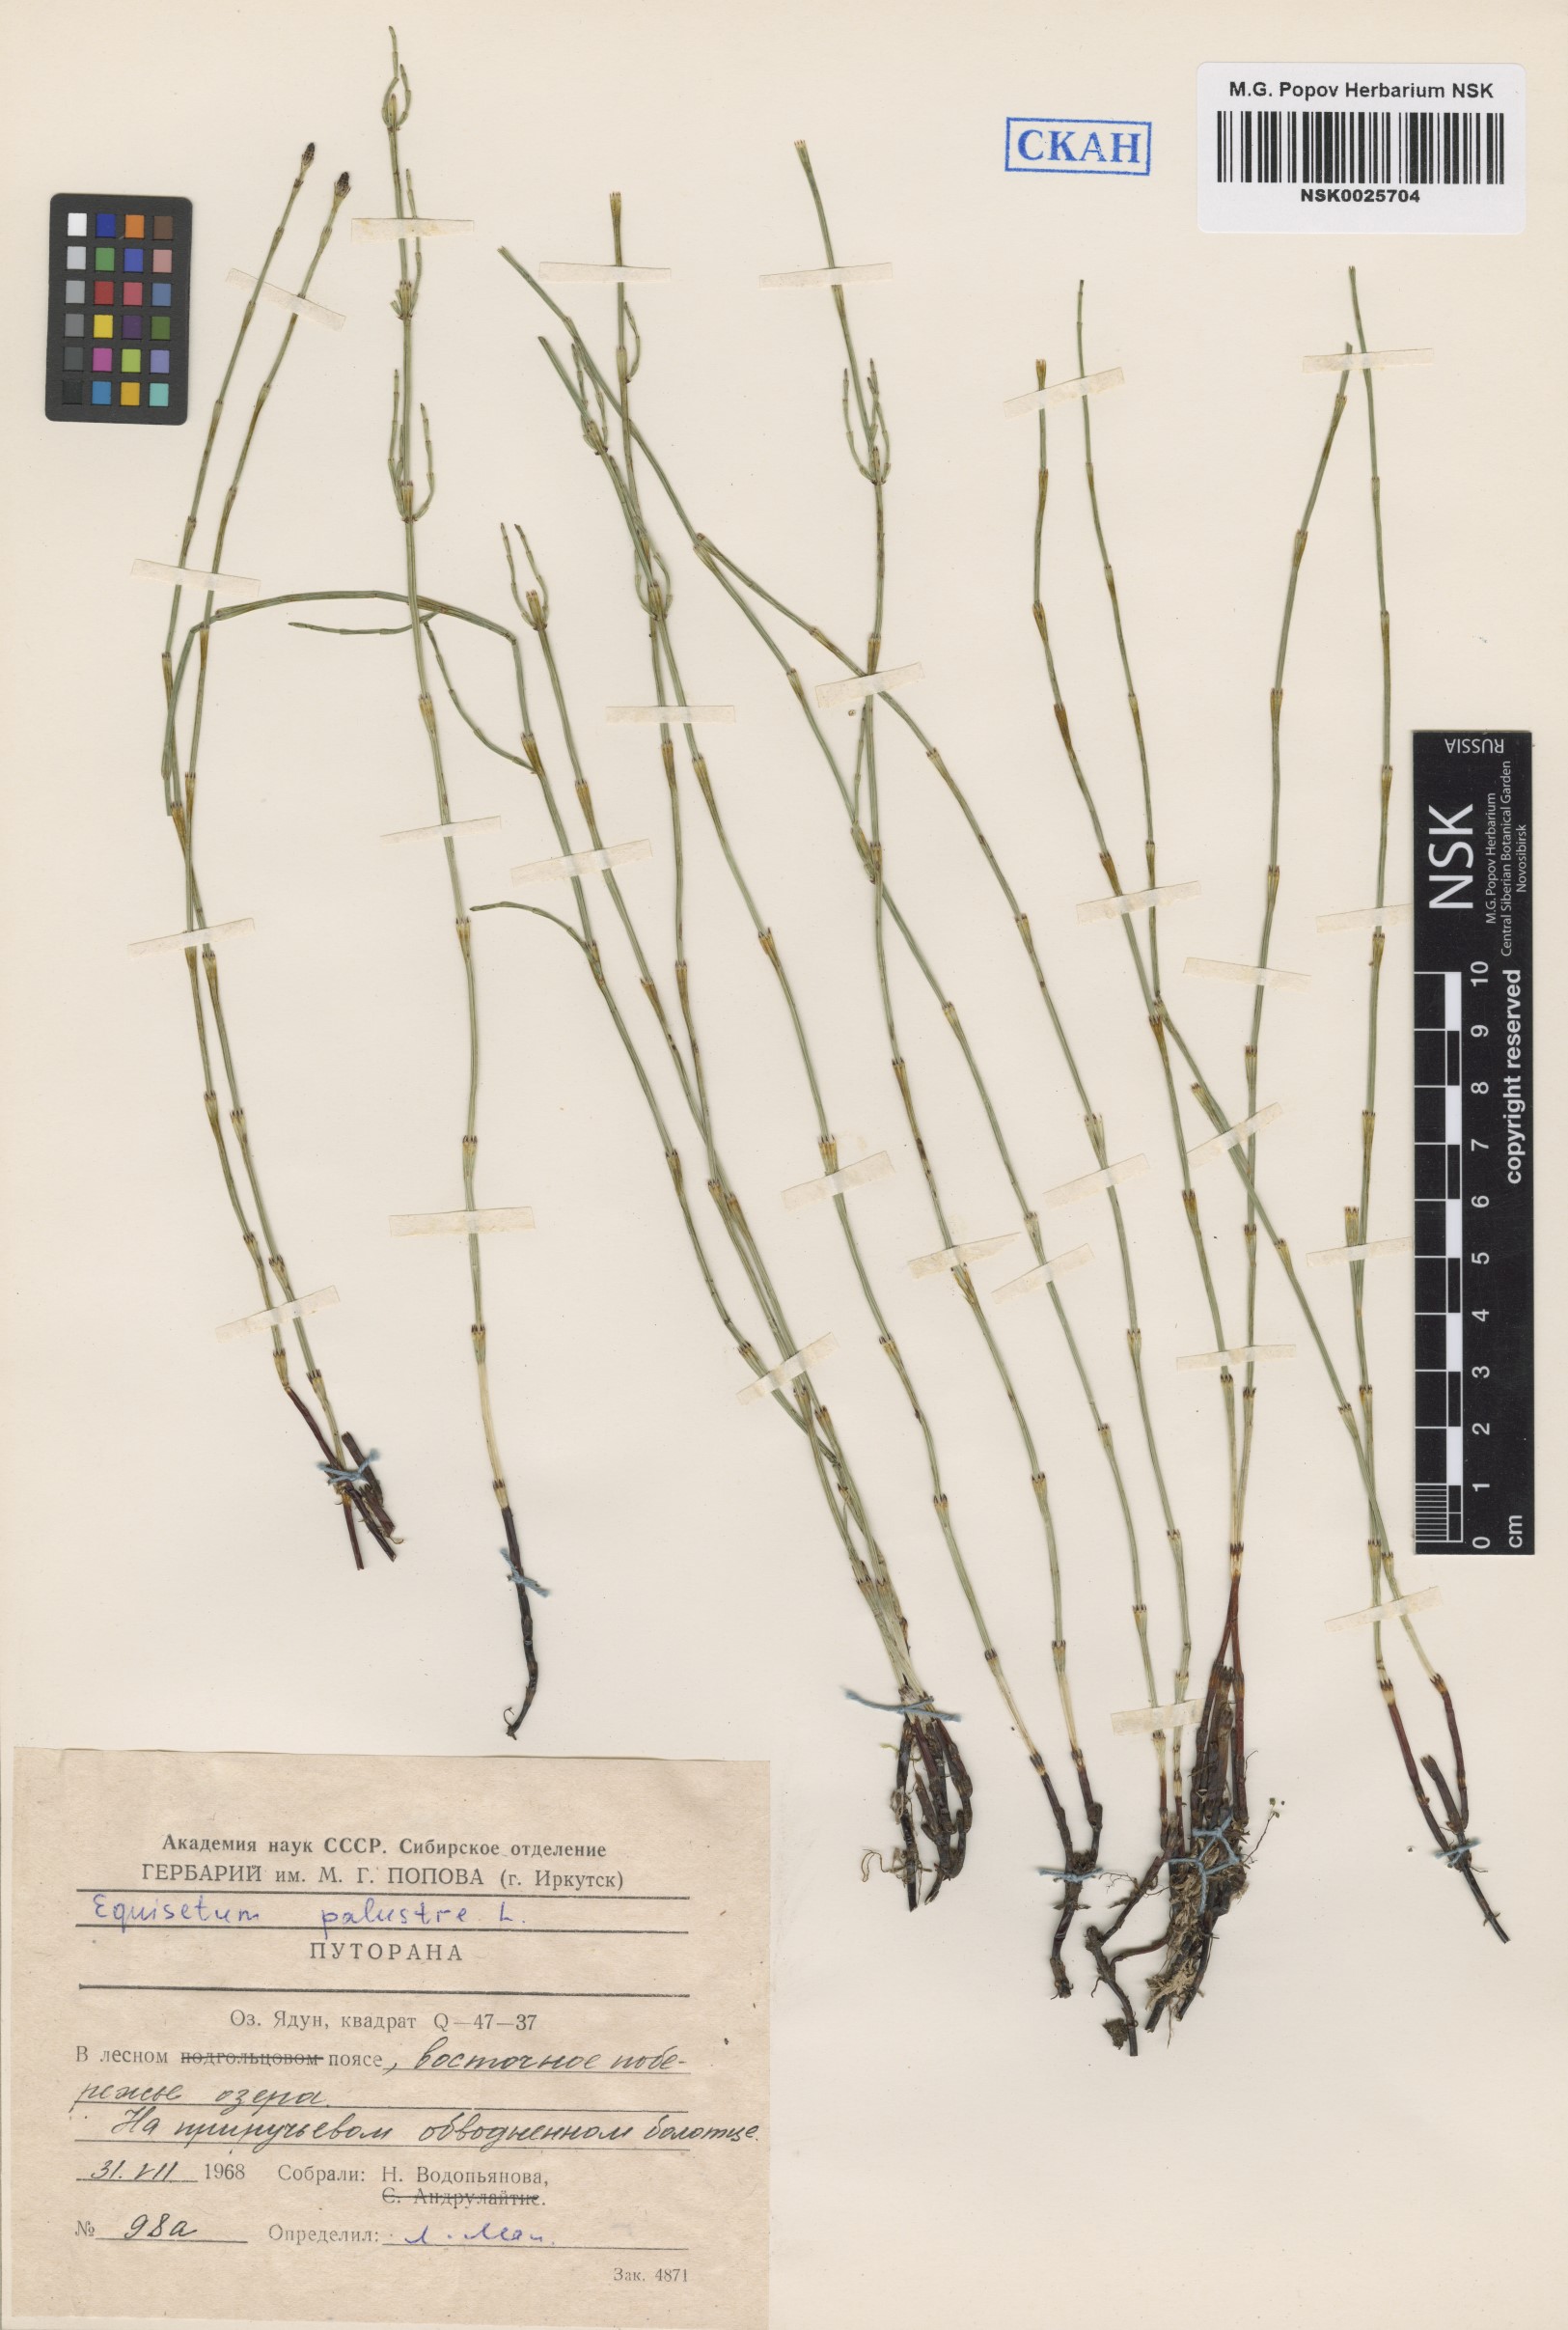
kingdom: Plantae
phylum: Tracheophyta
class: Polypodiopsida
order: Equisetales
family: Equisetaceae
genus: Equisetum
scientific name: Equisetum palustre
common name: Marsh horsetail
